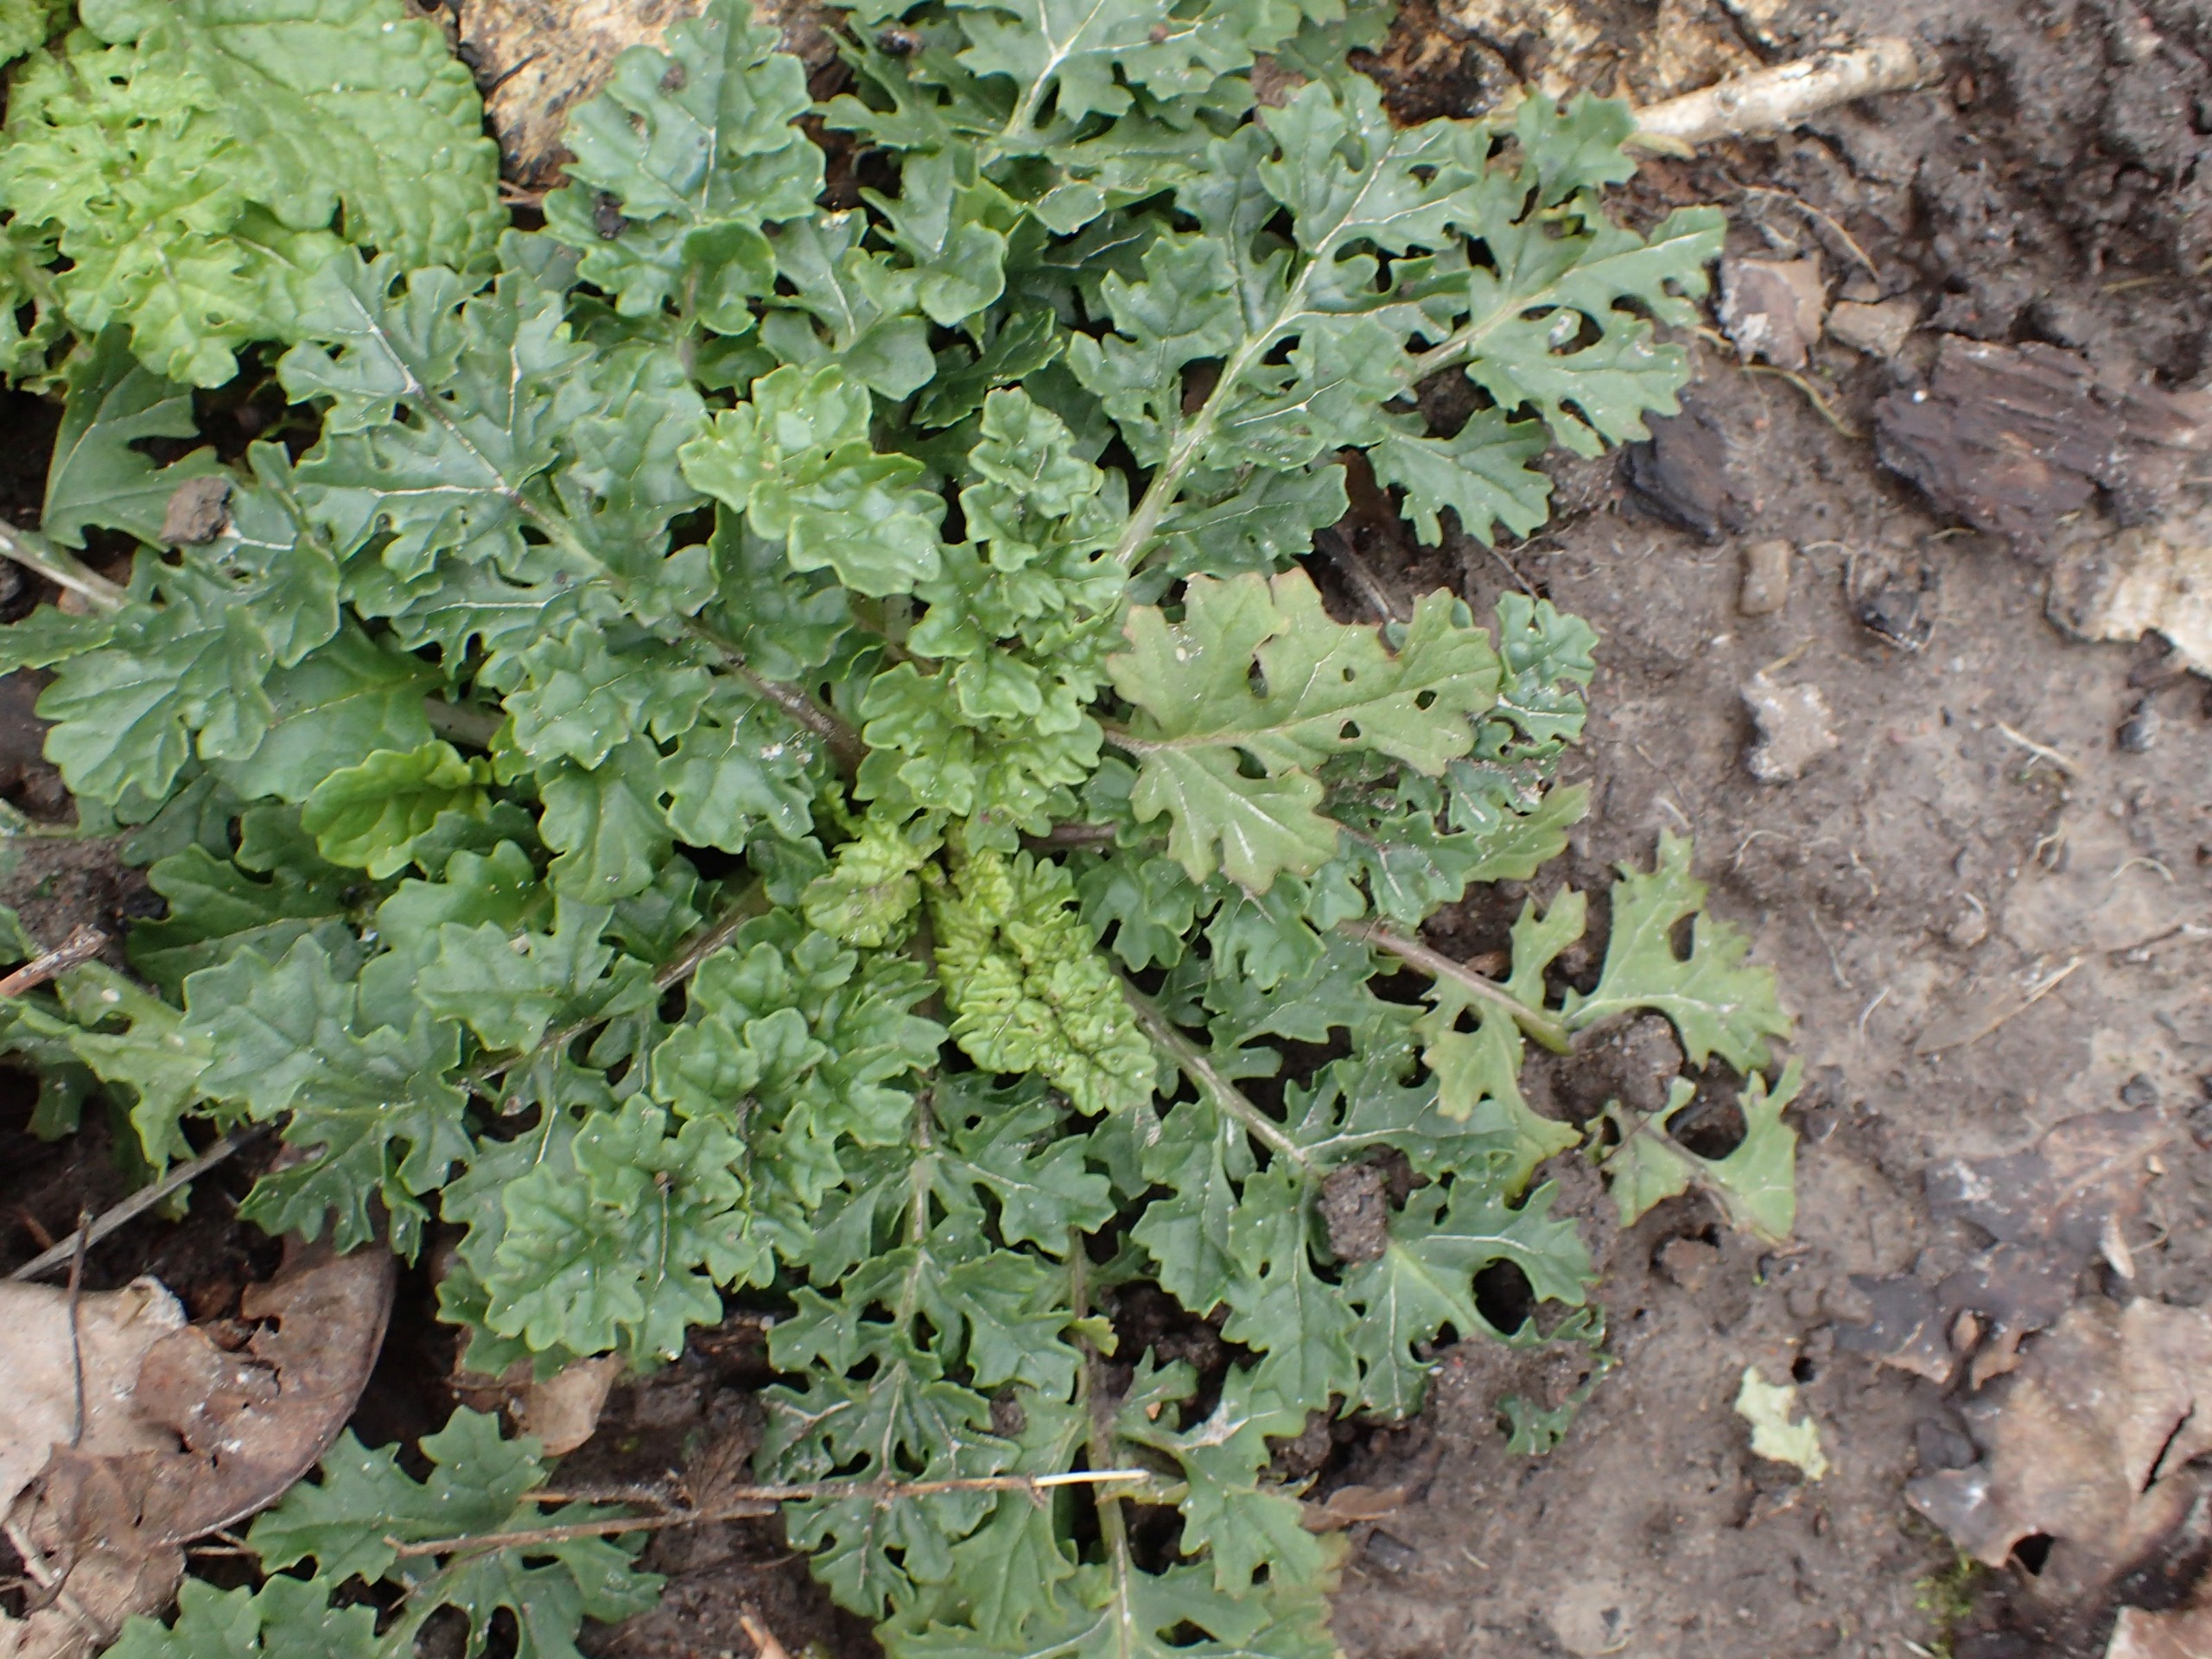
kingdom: Plantae
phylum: Tracheophyta
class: Magnoliopsida
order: Asterales
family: Asteraceae
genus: Jacobaea
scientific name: Jacobaea vulgaris
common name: Eng-brandbæger
